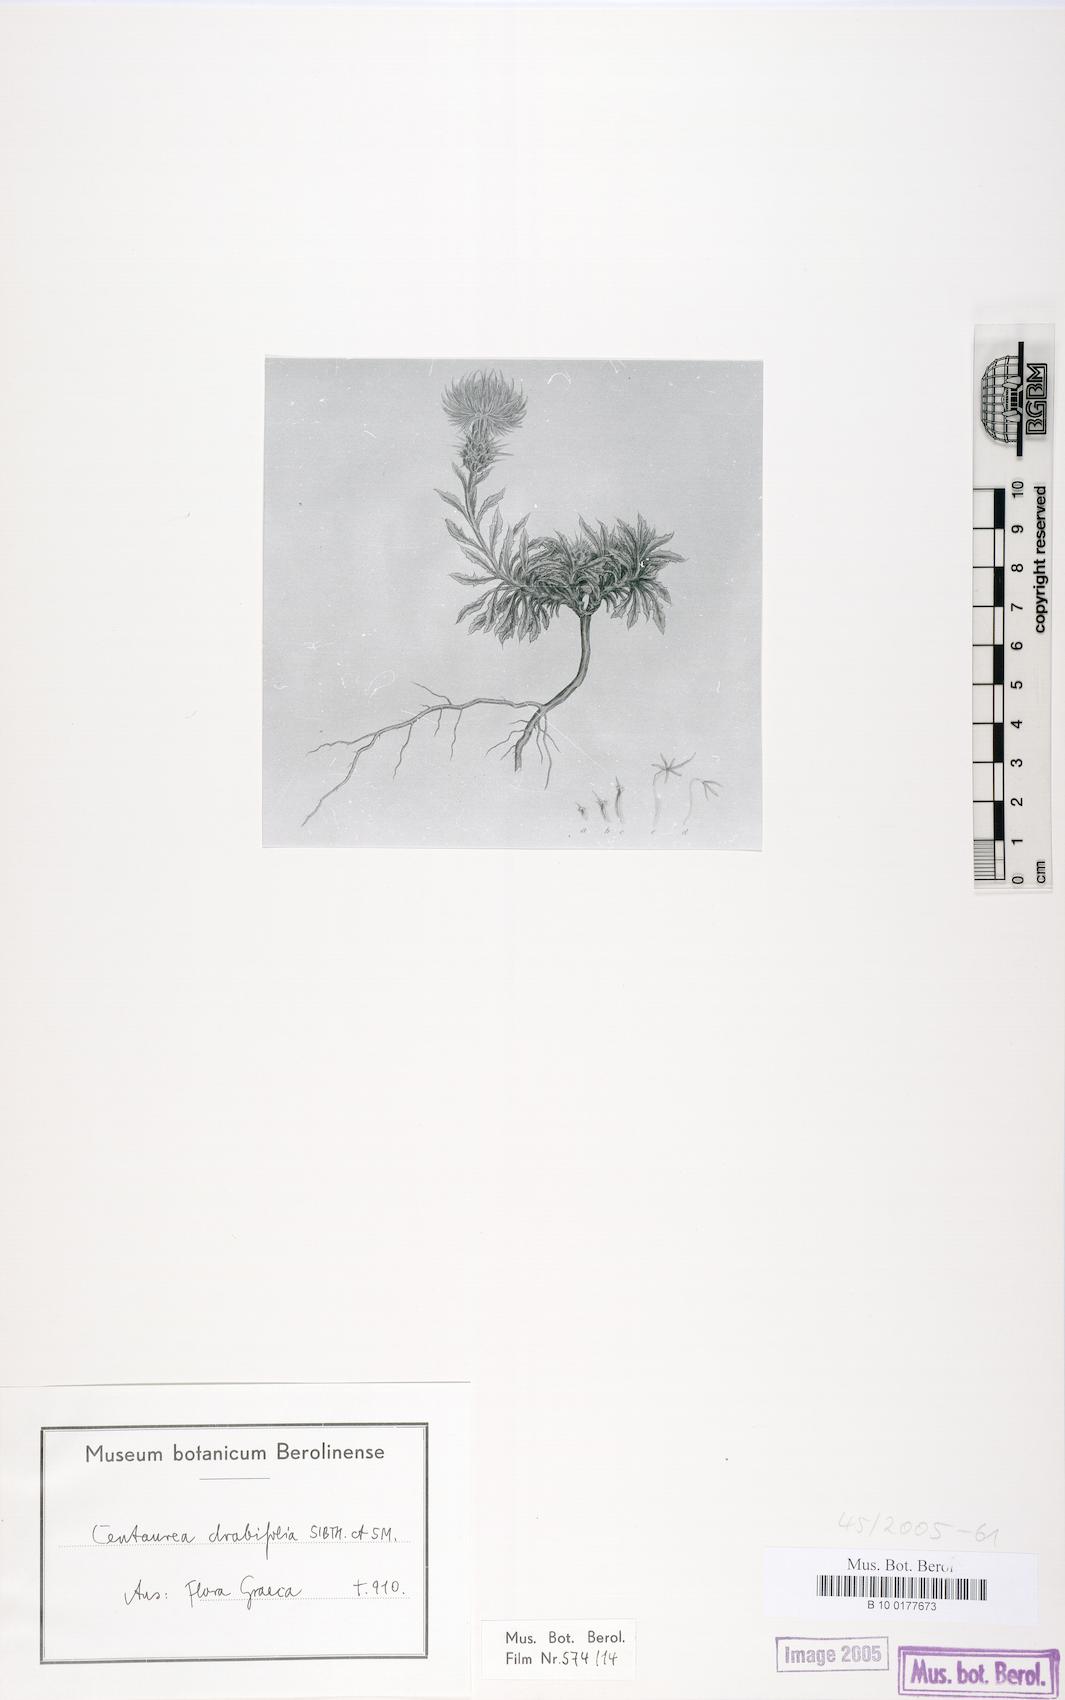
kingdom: Plantae
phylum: Tracheophyta
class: Magnoliopsida
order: Asterales
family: Asteraceae
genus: Centaurea
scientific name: Centaurea drabifolia
